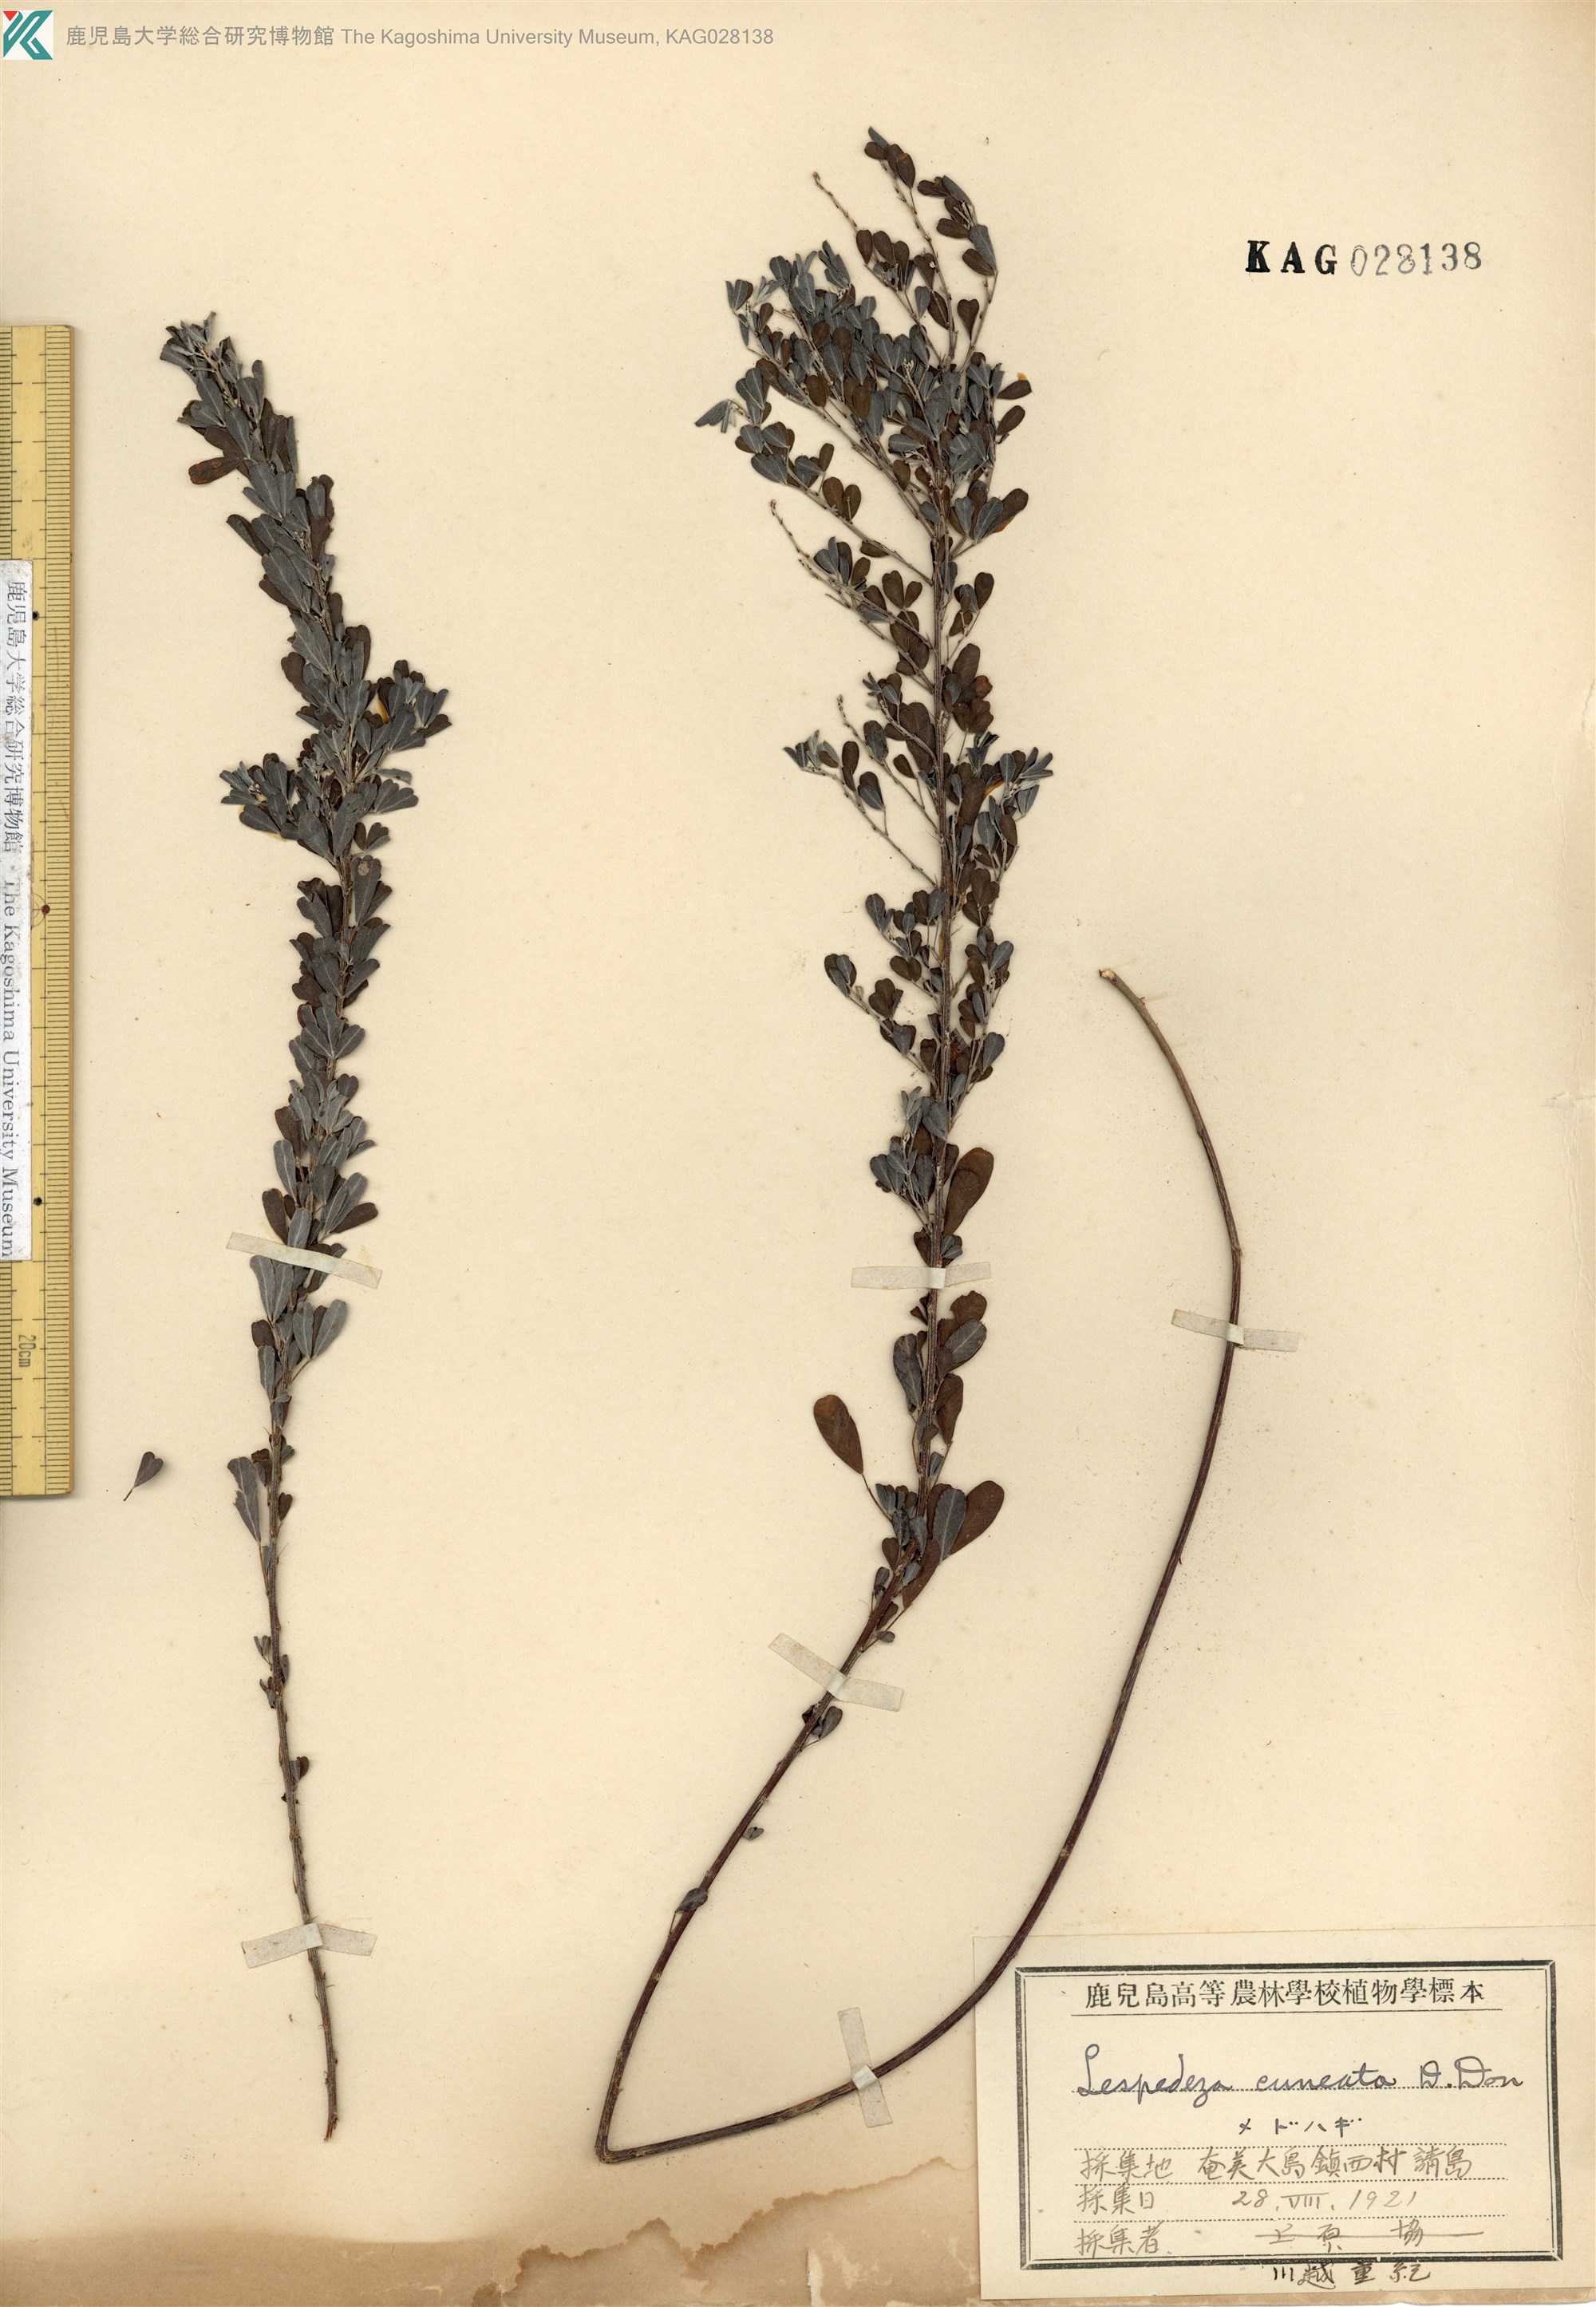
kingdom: Plantae
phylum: Tracheophyta
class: Magnoliopsida
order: Fabales
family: Fabaceae
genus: Lespedeza
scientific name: Lespedeza cuneata
